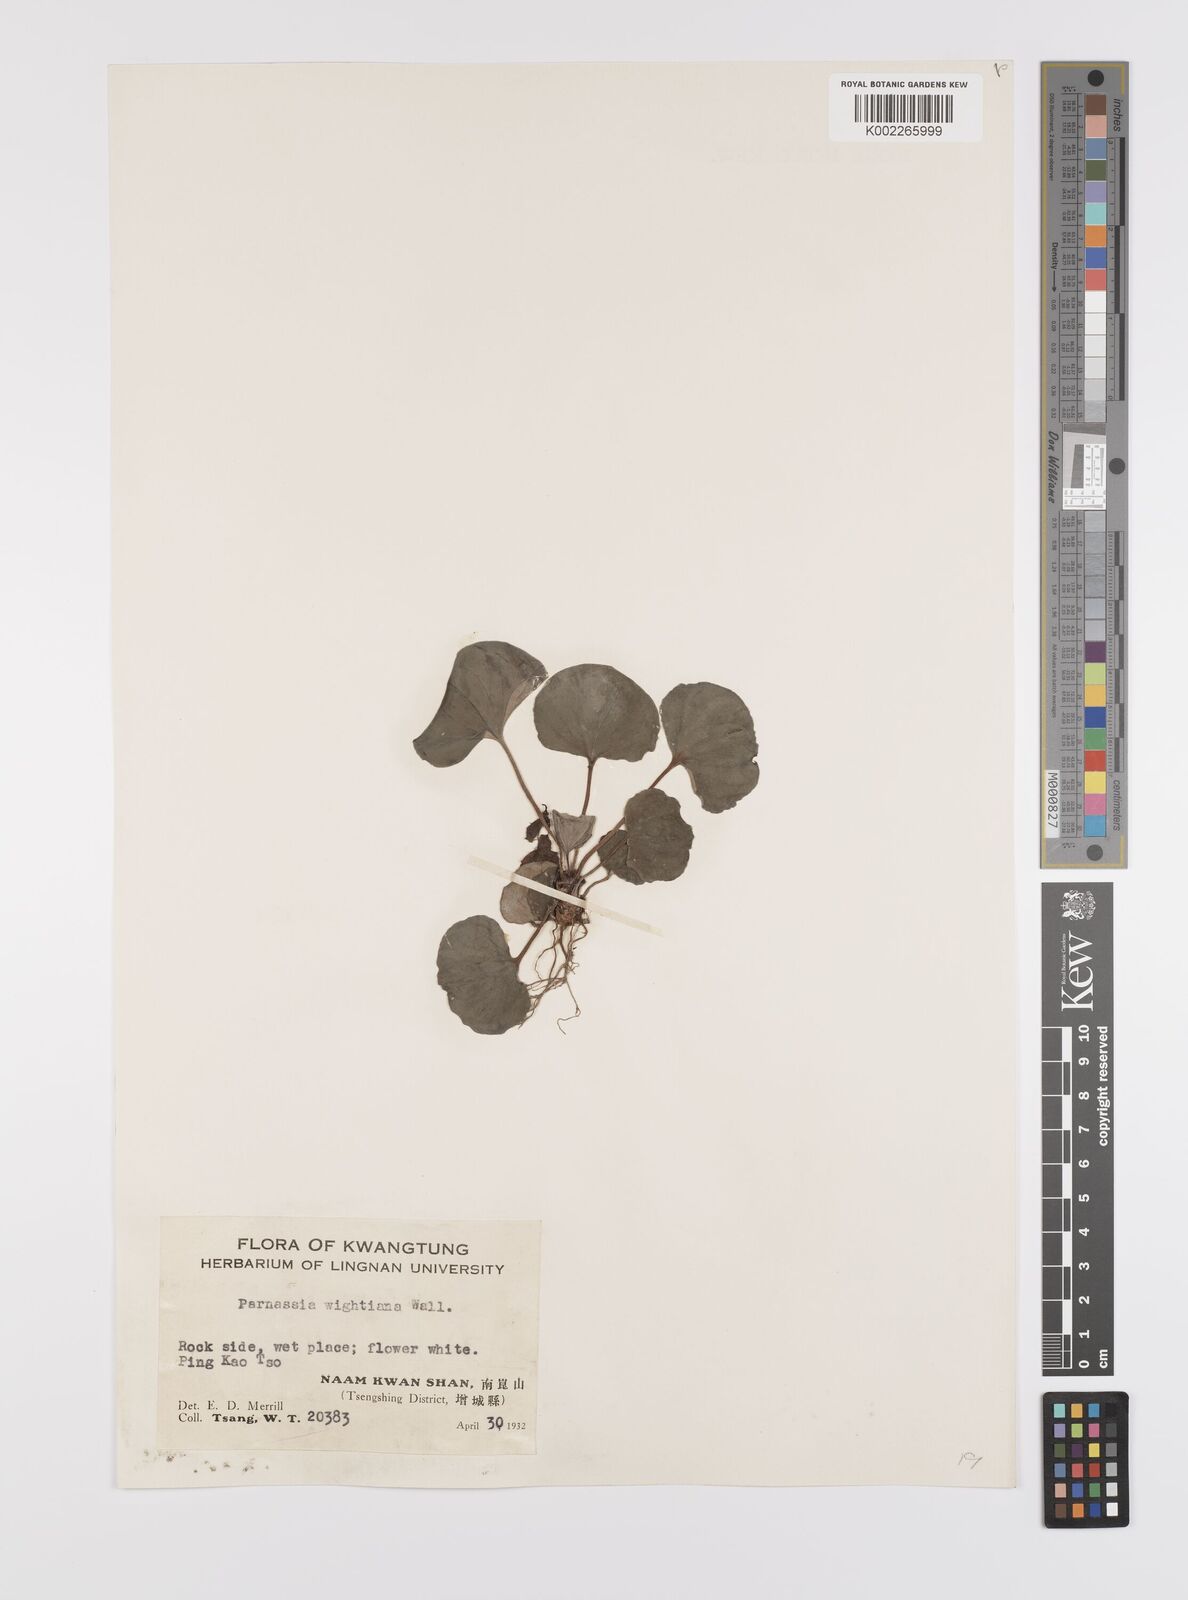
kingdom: Plantae
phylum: Tracheophyta
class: Magnoliopsida
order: Celastrales
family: Parnassiaceae
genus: Parnassia
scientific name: Parnassia wightiana
